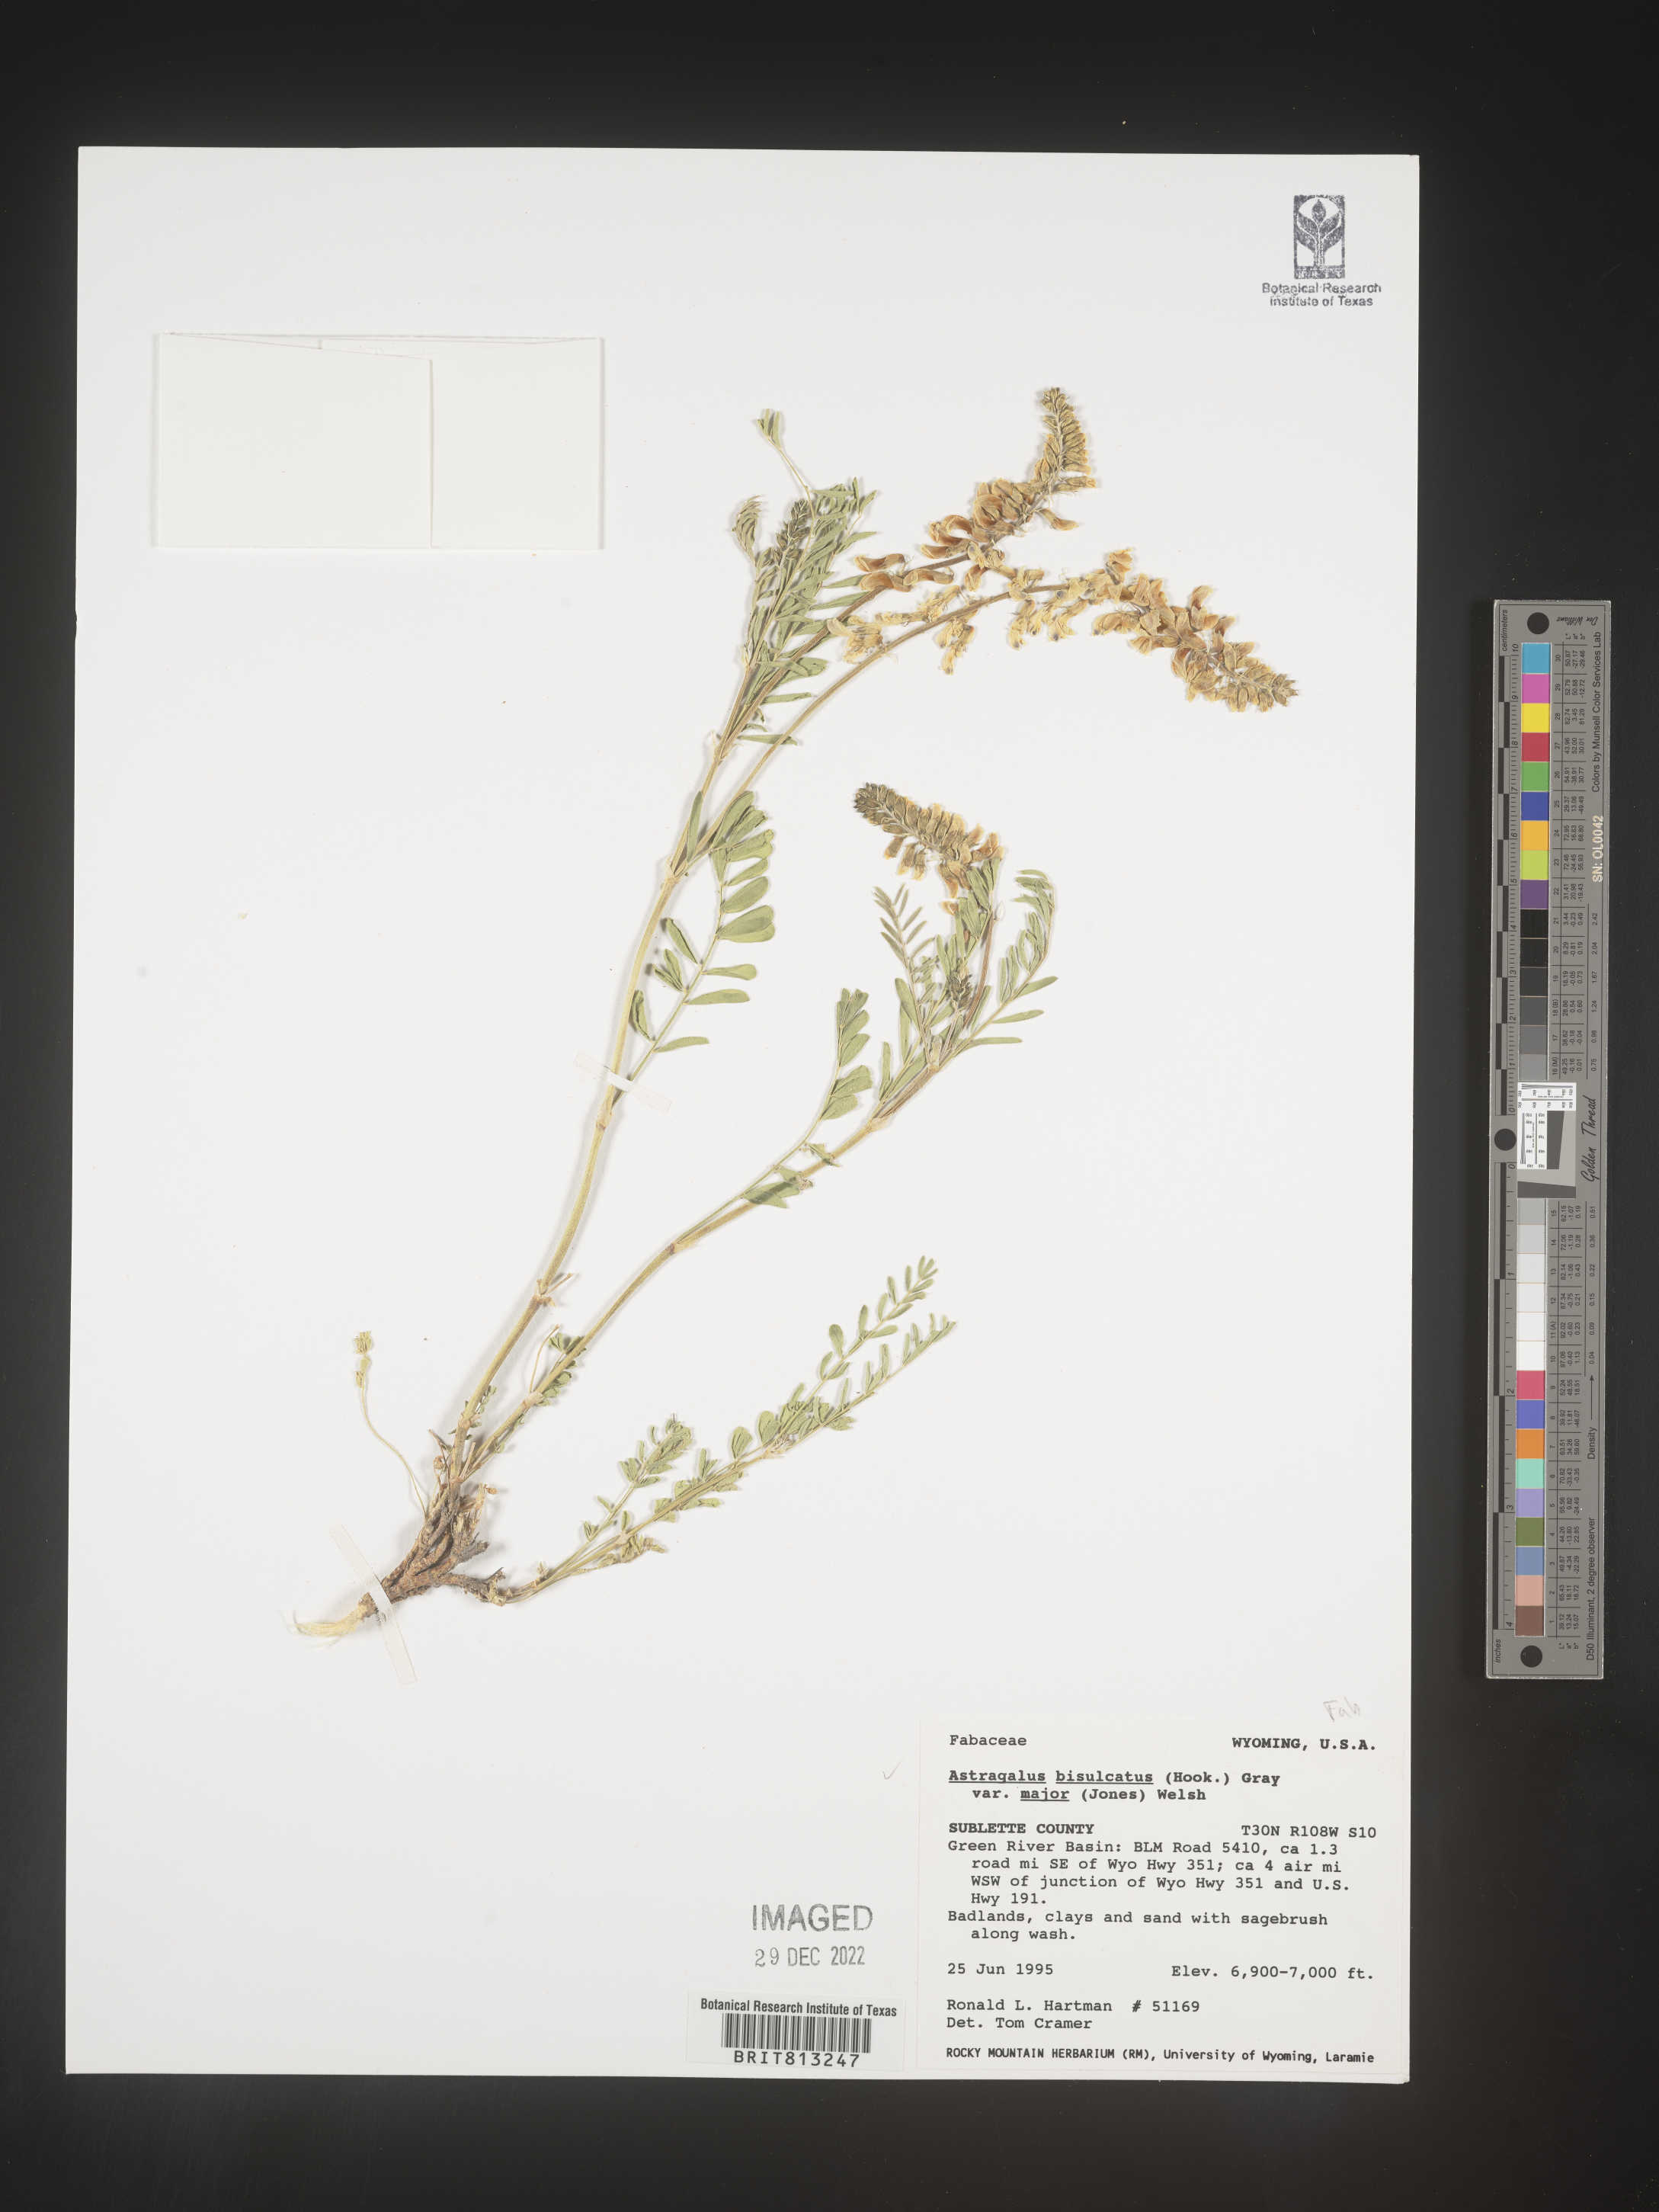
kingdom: Plantae
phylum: Tracheophyta
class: Magnoliopsida
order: Fabales
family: Fabaceae
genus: Astragalus
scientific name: Astragalus bisulcatus
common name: Two-groove milk-vetch
